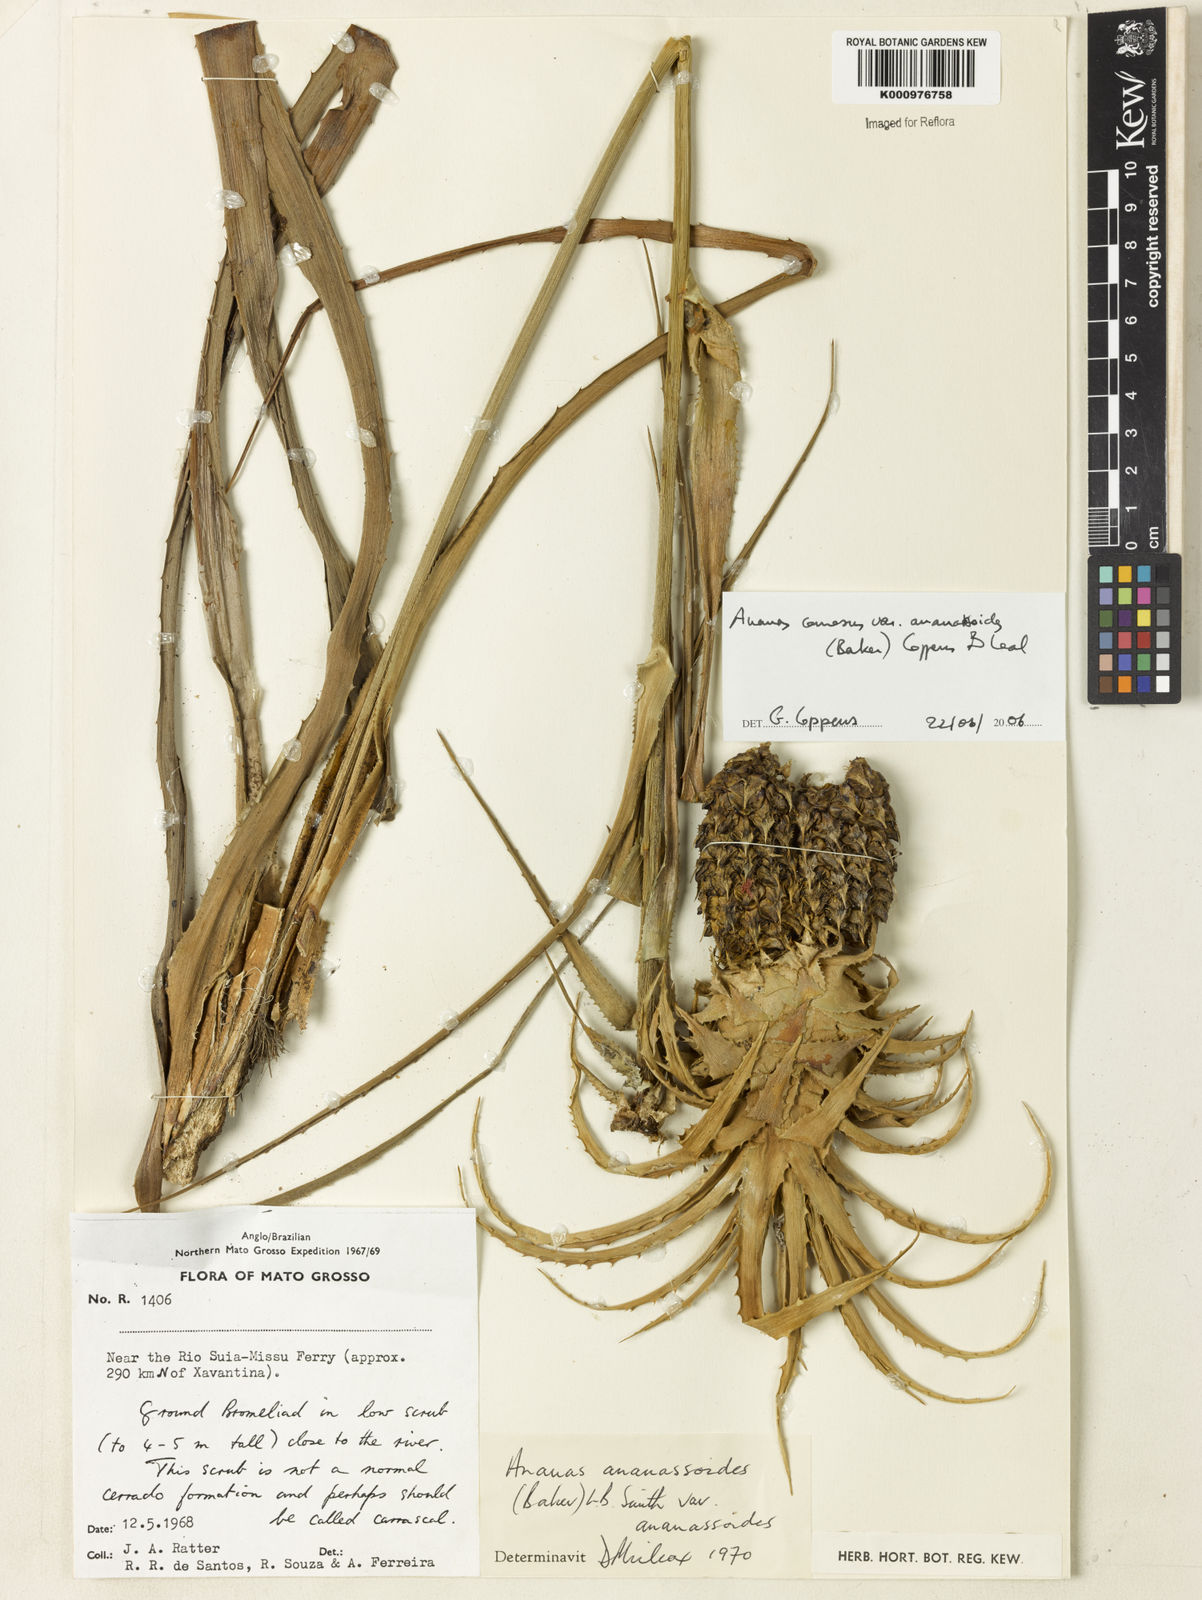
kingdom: Plantae
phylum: Tracheophyta
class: Liliopsida
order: Poales
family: Bromeliaceae
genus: Ananas
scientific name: Ananas comosus
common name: Pineapple
